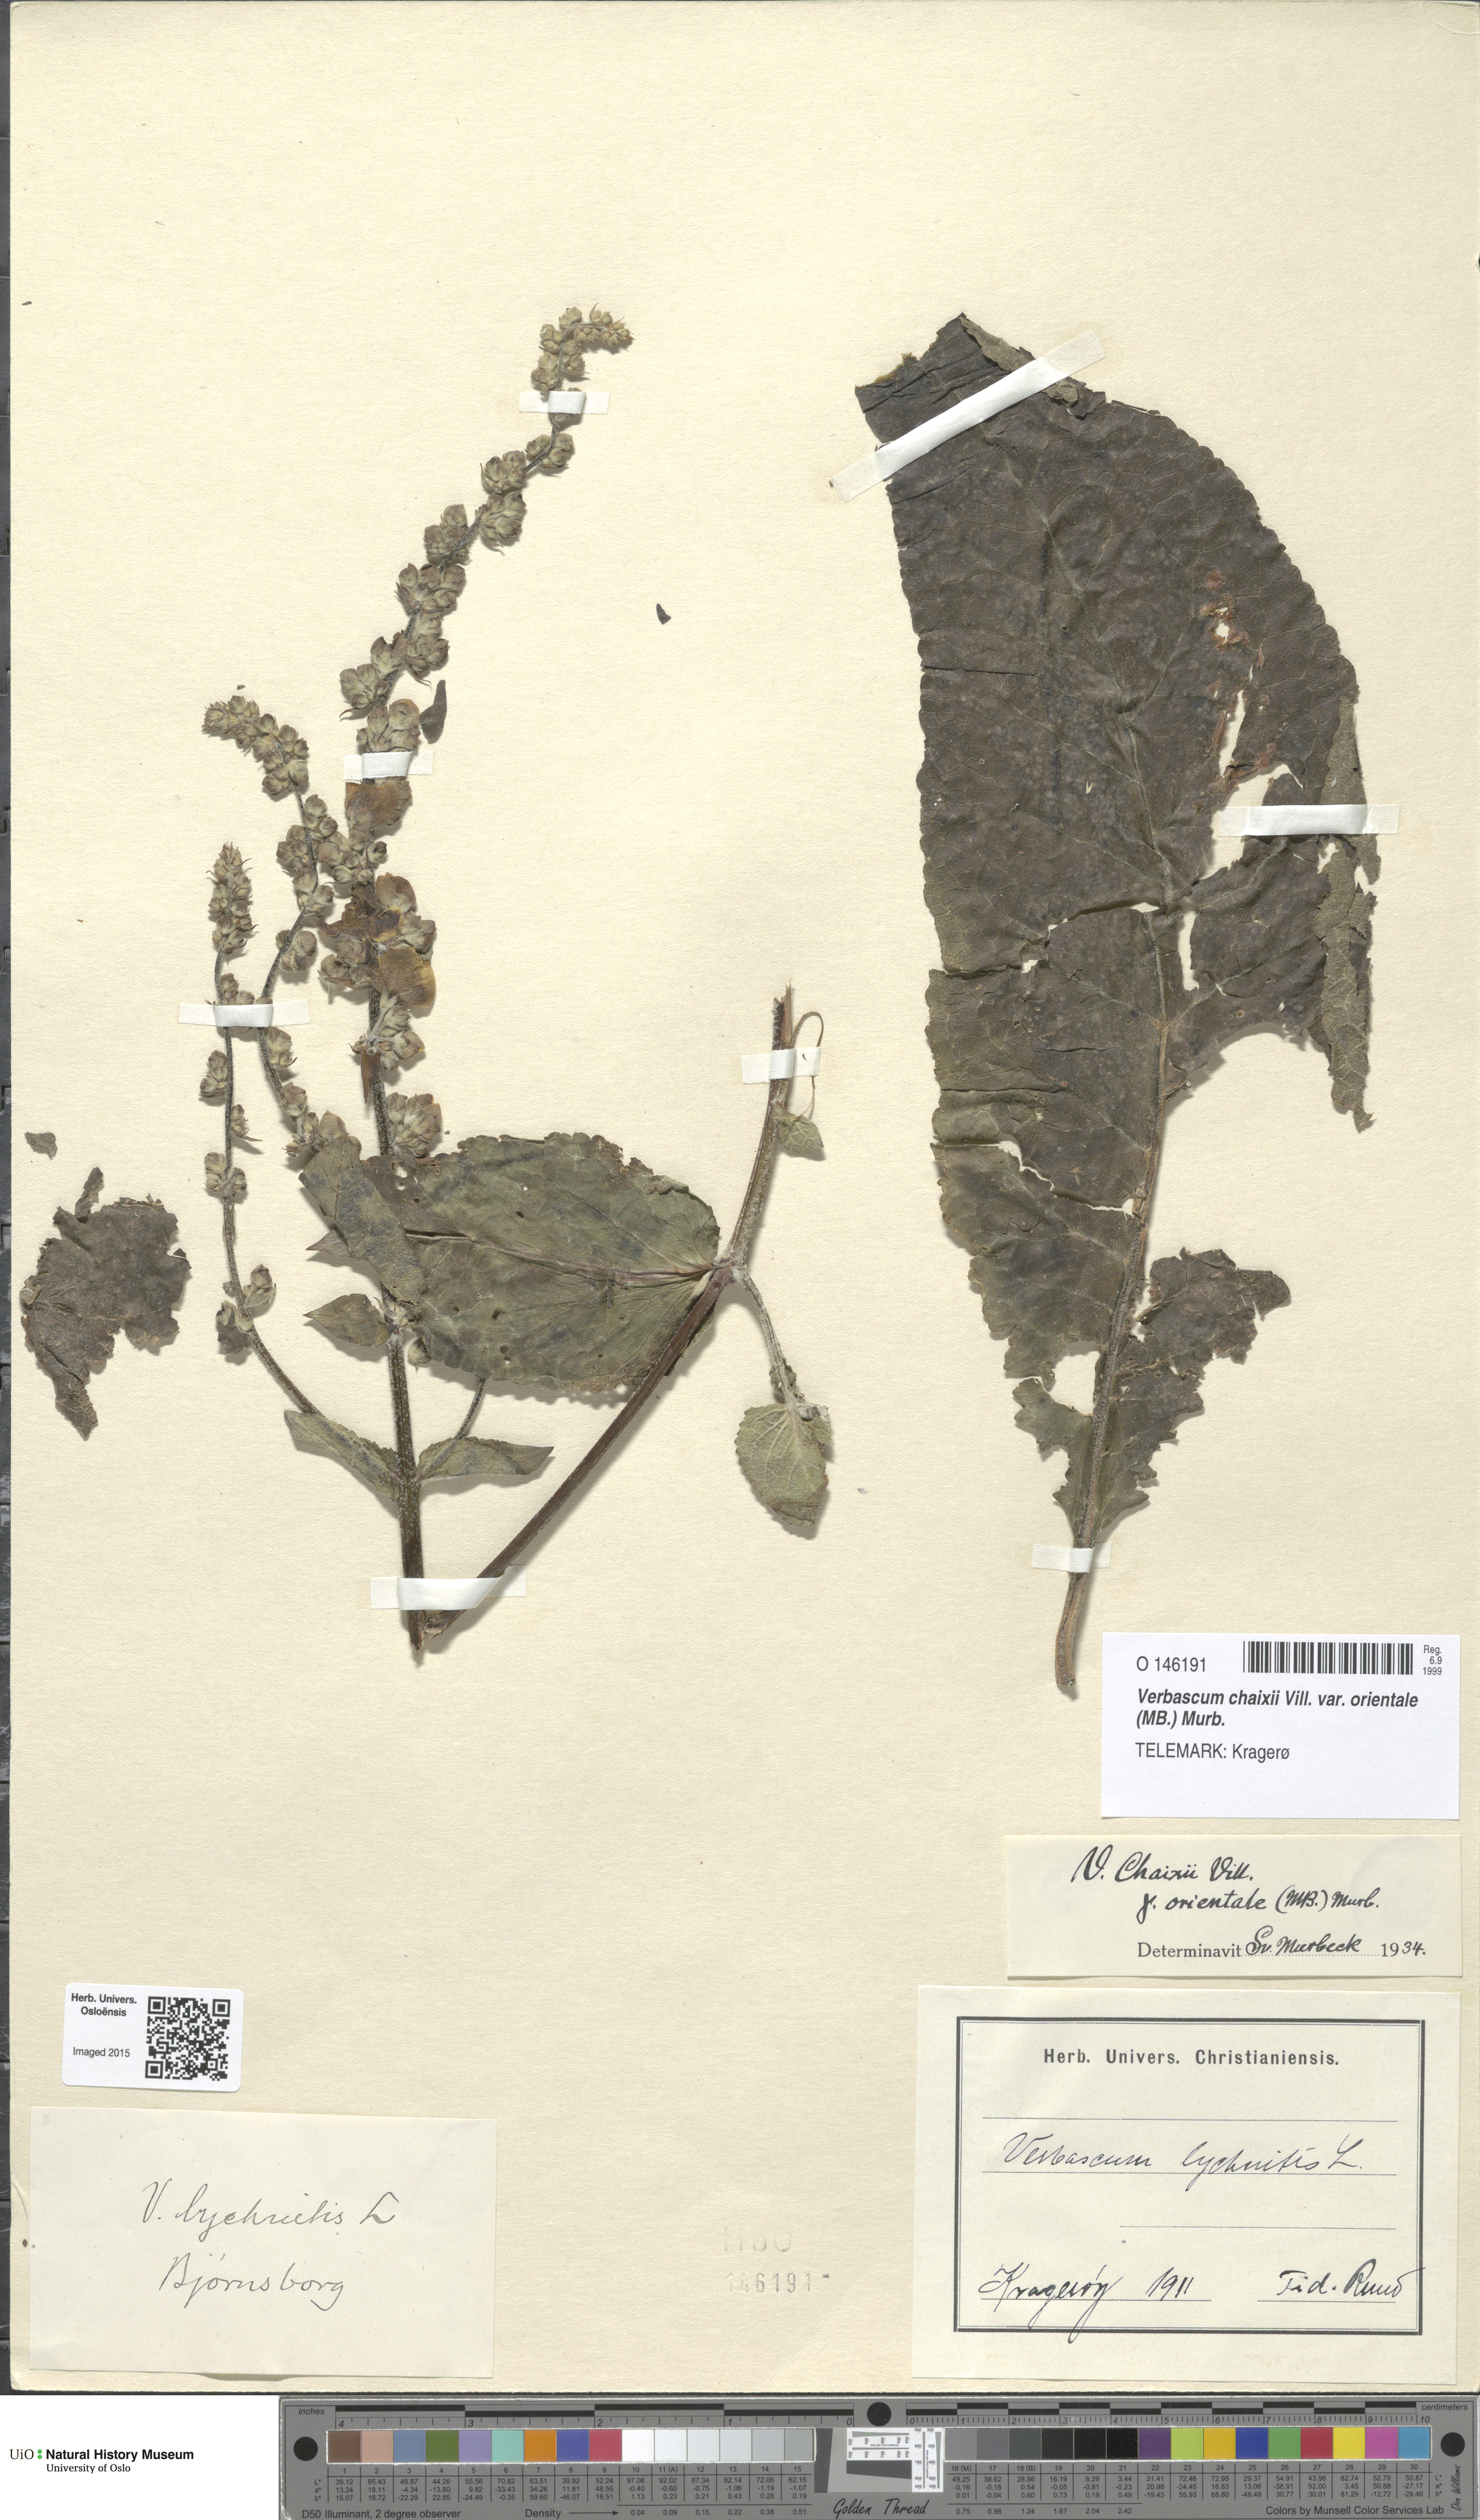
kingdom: Plantae
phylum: Tracheophyta
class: Magnoliopsida
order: Lamiales
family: Scrophulariaceae
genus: Verbascum
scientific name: Verbascum chaixii
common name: Nettle-leaved mullein
